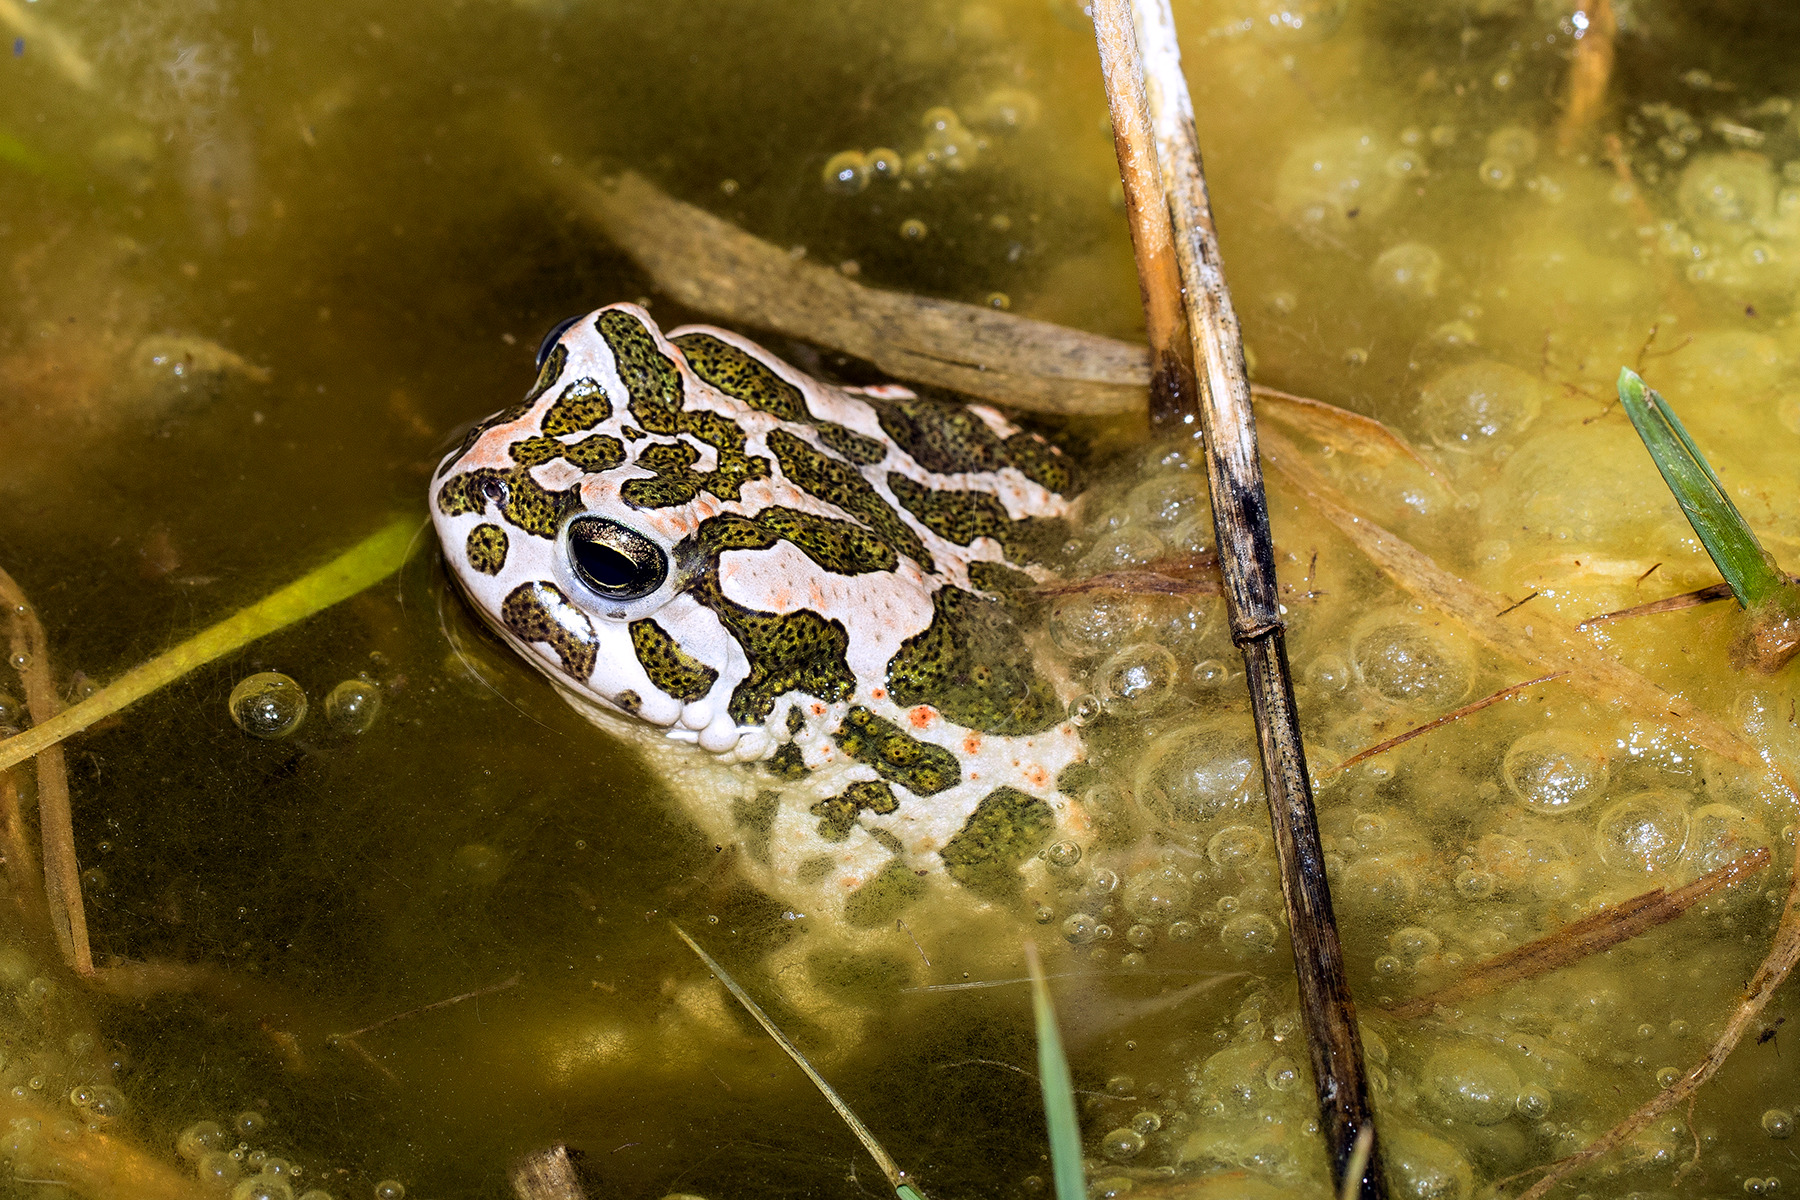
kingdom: Animalia
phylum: Chordata
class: Amphibia
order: Anura
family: Bufonidae
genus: Bufotes
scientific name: Bufotes viridis
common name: Grønbroget tudse
